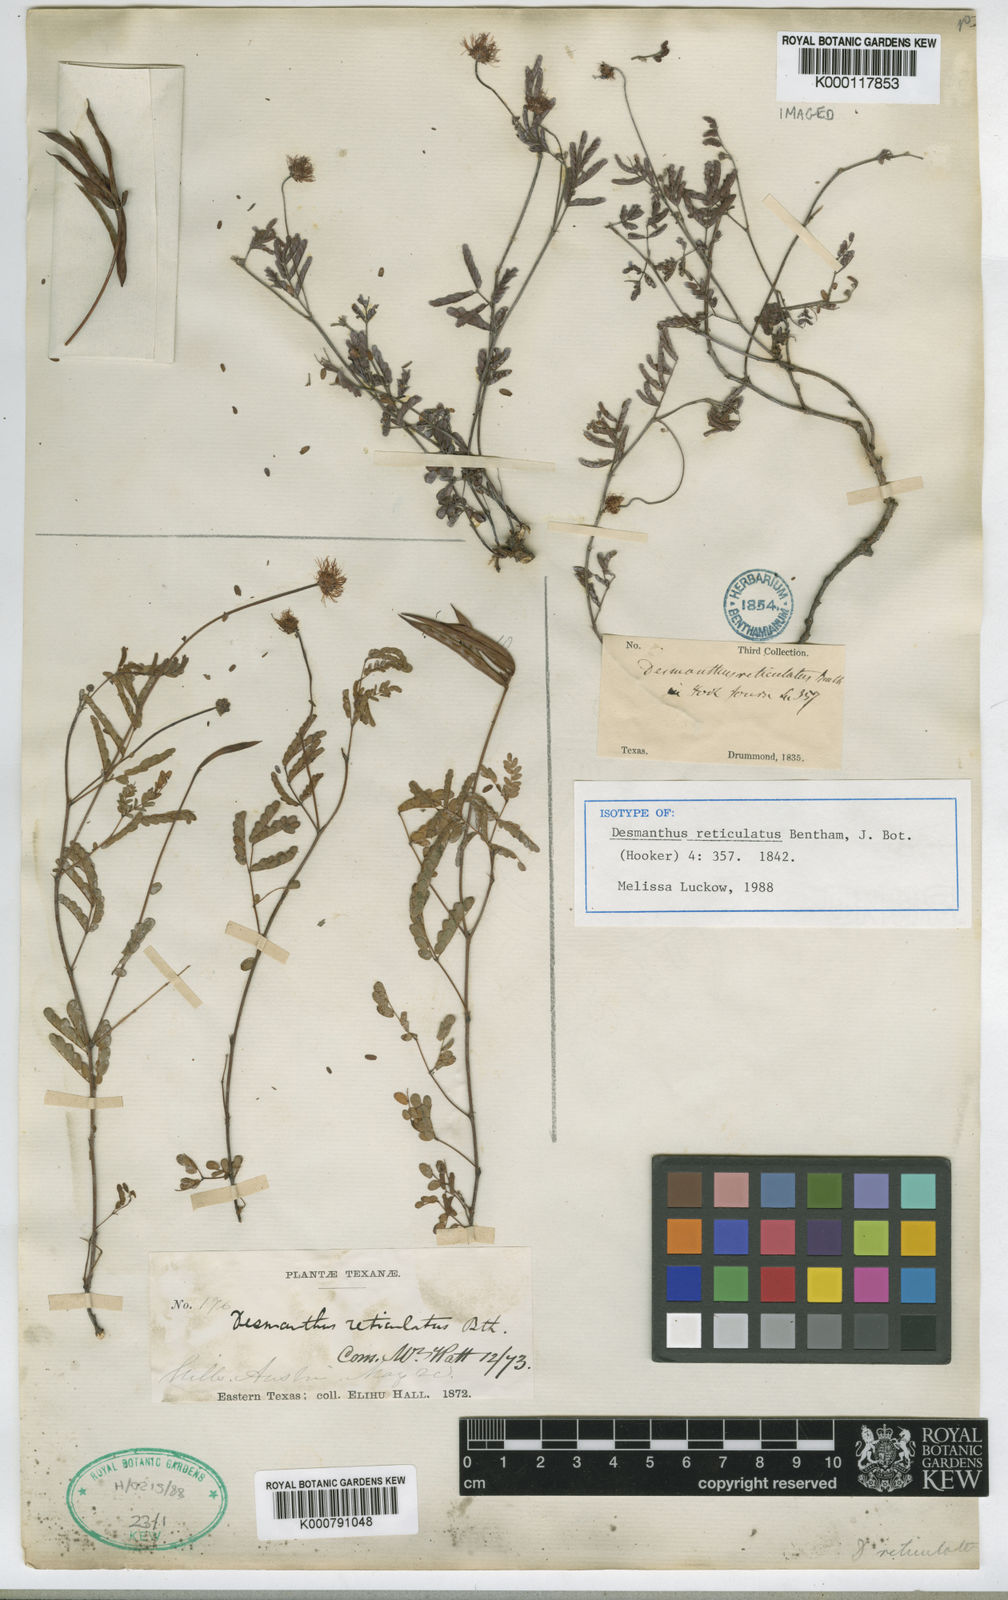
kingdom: Plantae
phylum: Tracheophyta
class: Magnoliopsida
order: Fabales
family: Fabaceae
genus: Desmanthus
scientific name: Desmanthus reticulatus
